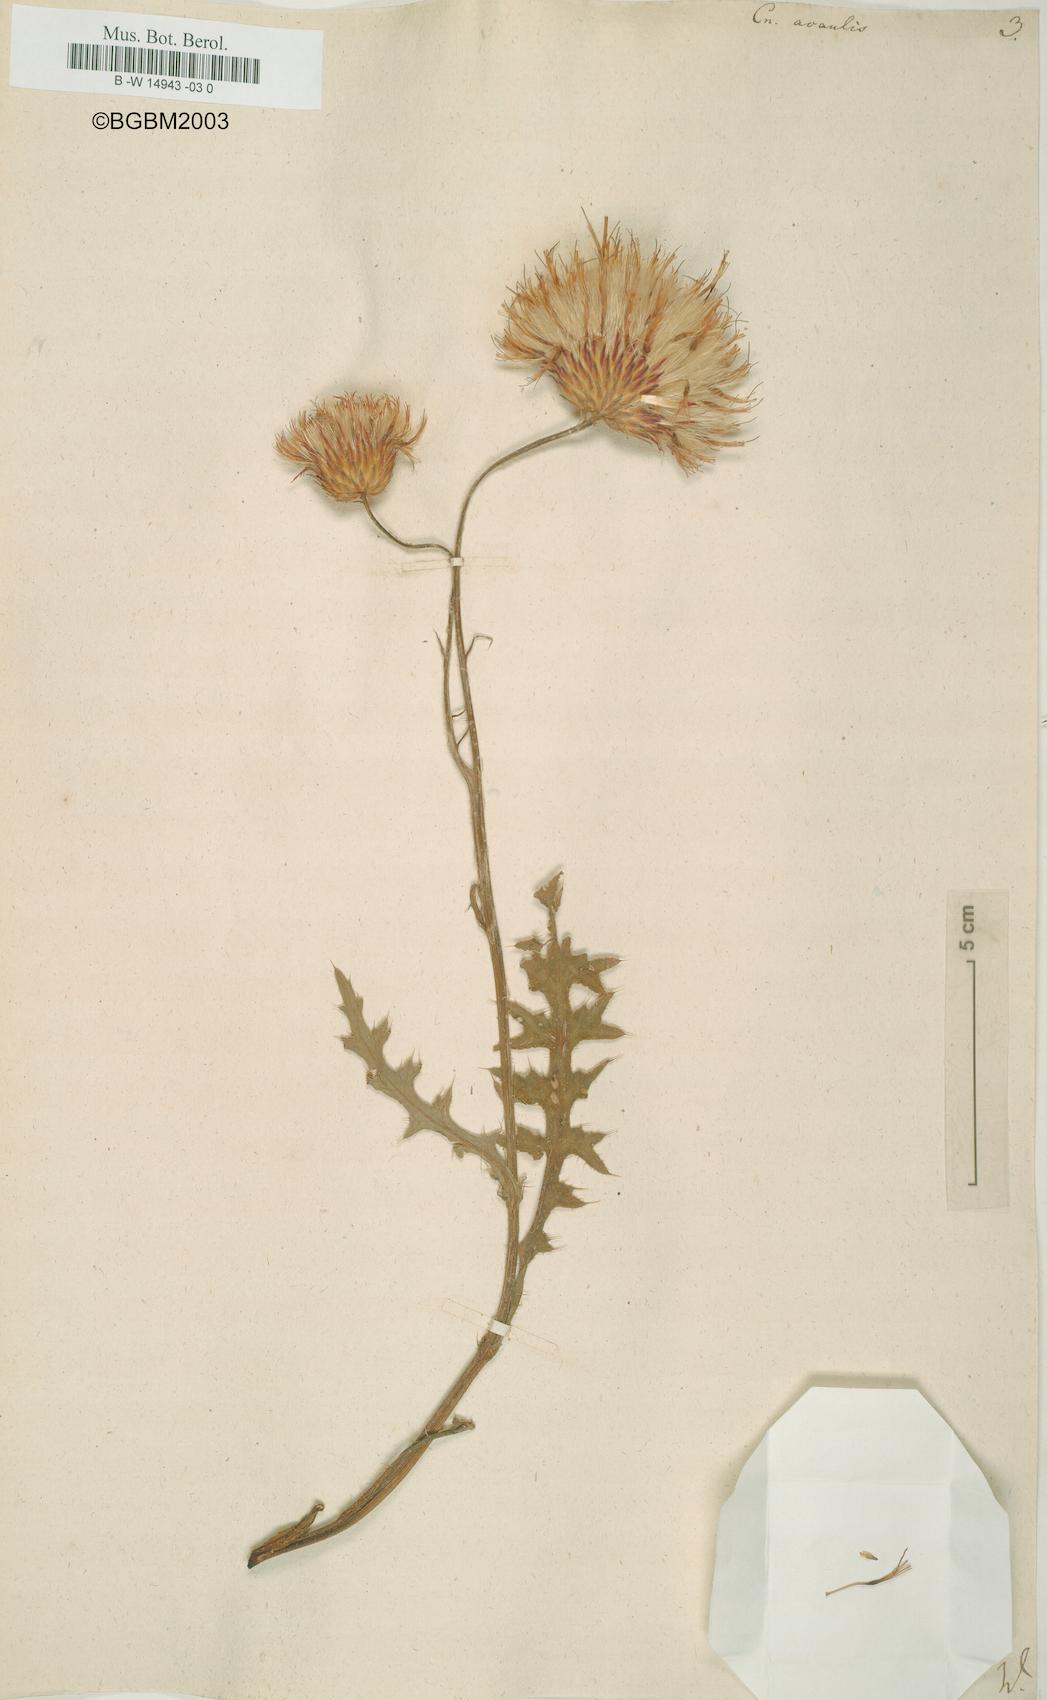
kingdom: Plantae
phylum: Tracheophyta
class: Magnoliopsida
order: Asterales
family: Asteraceae
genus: Cirsium
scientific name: Cirsium acaule
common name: Dwarf thistle
